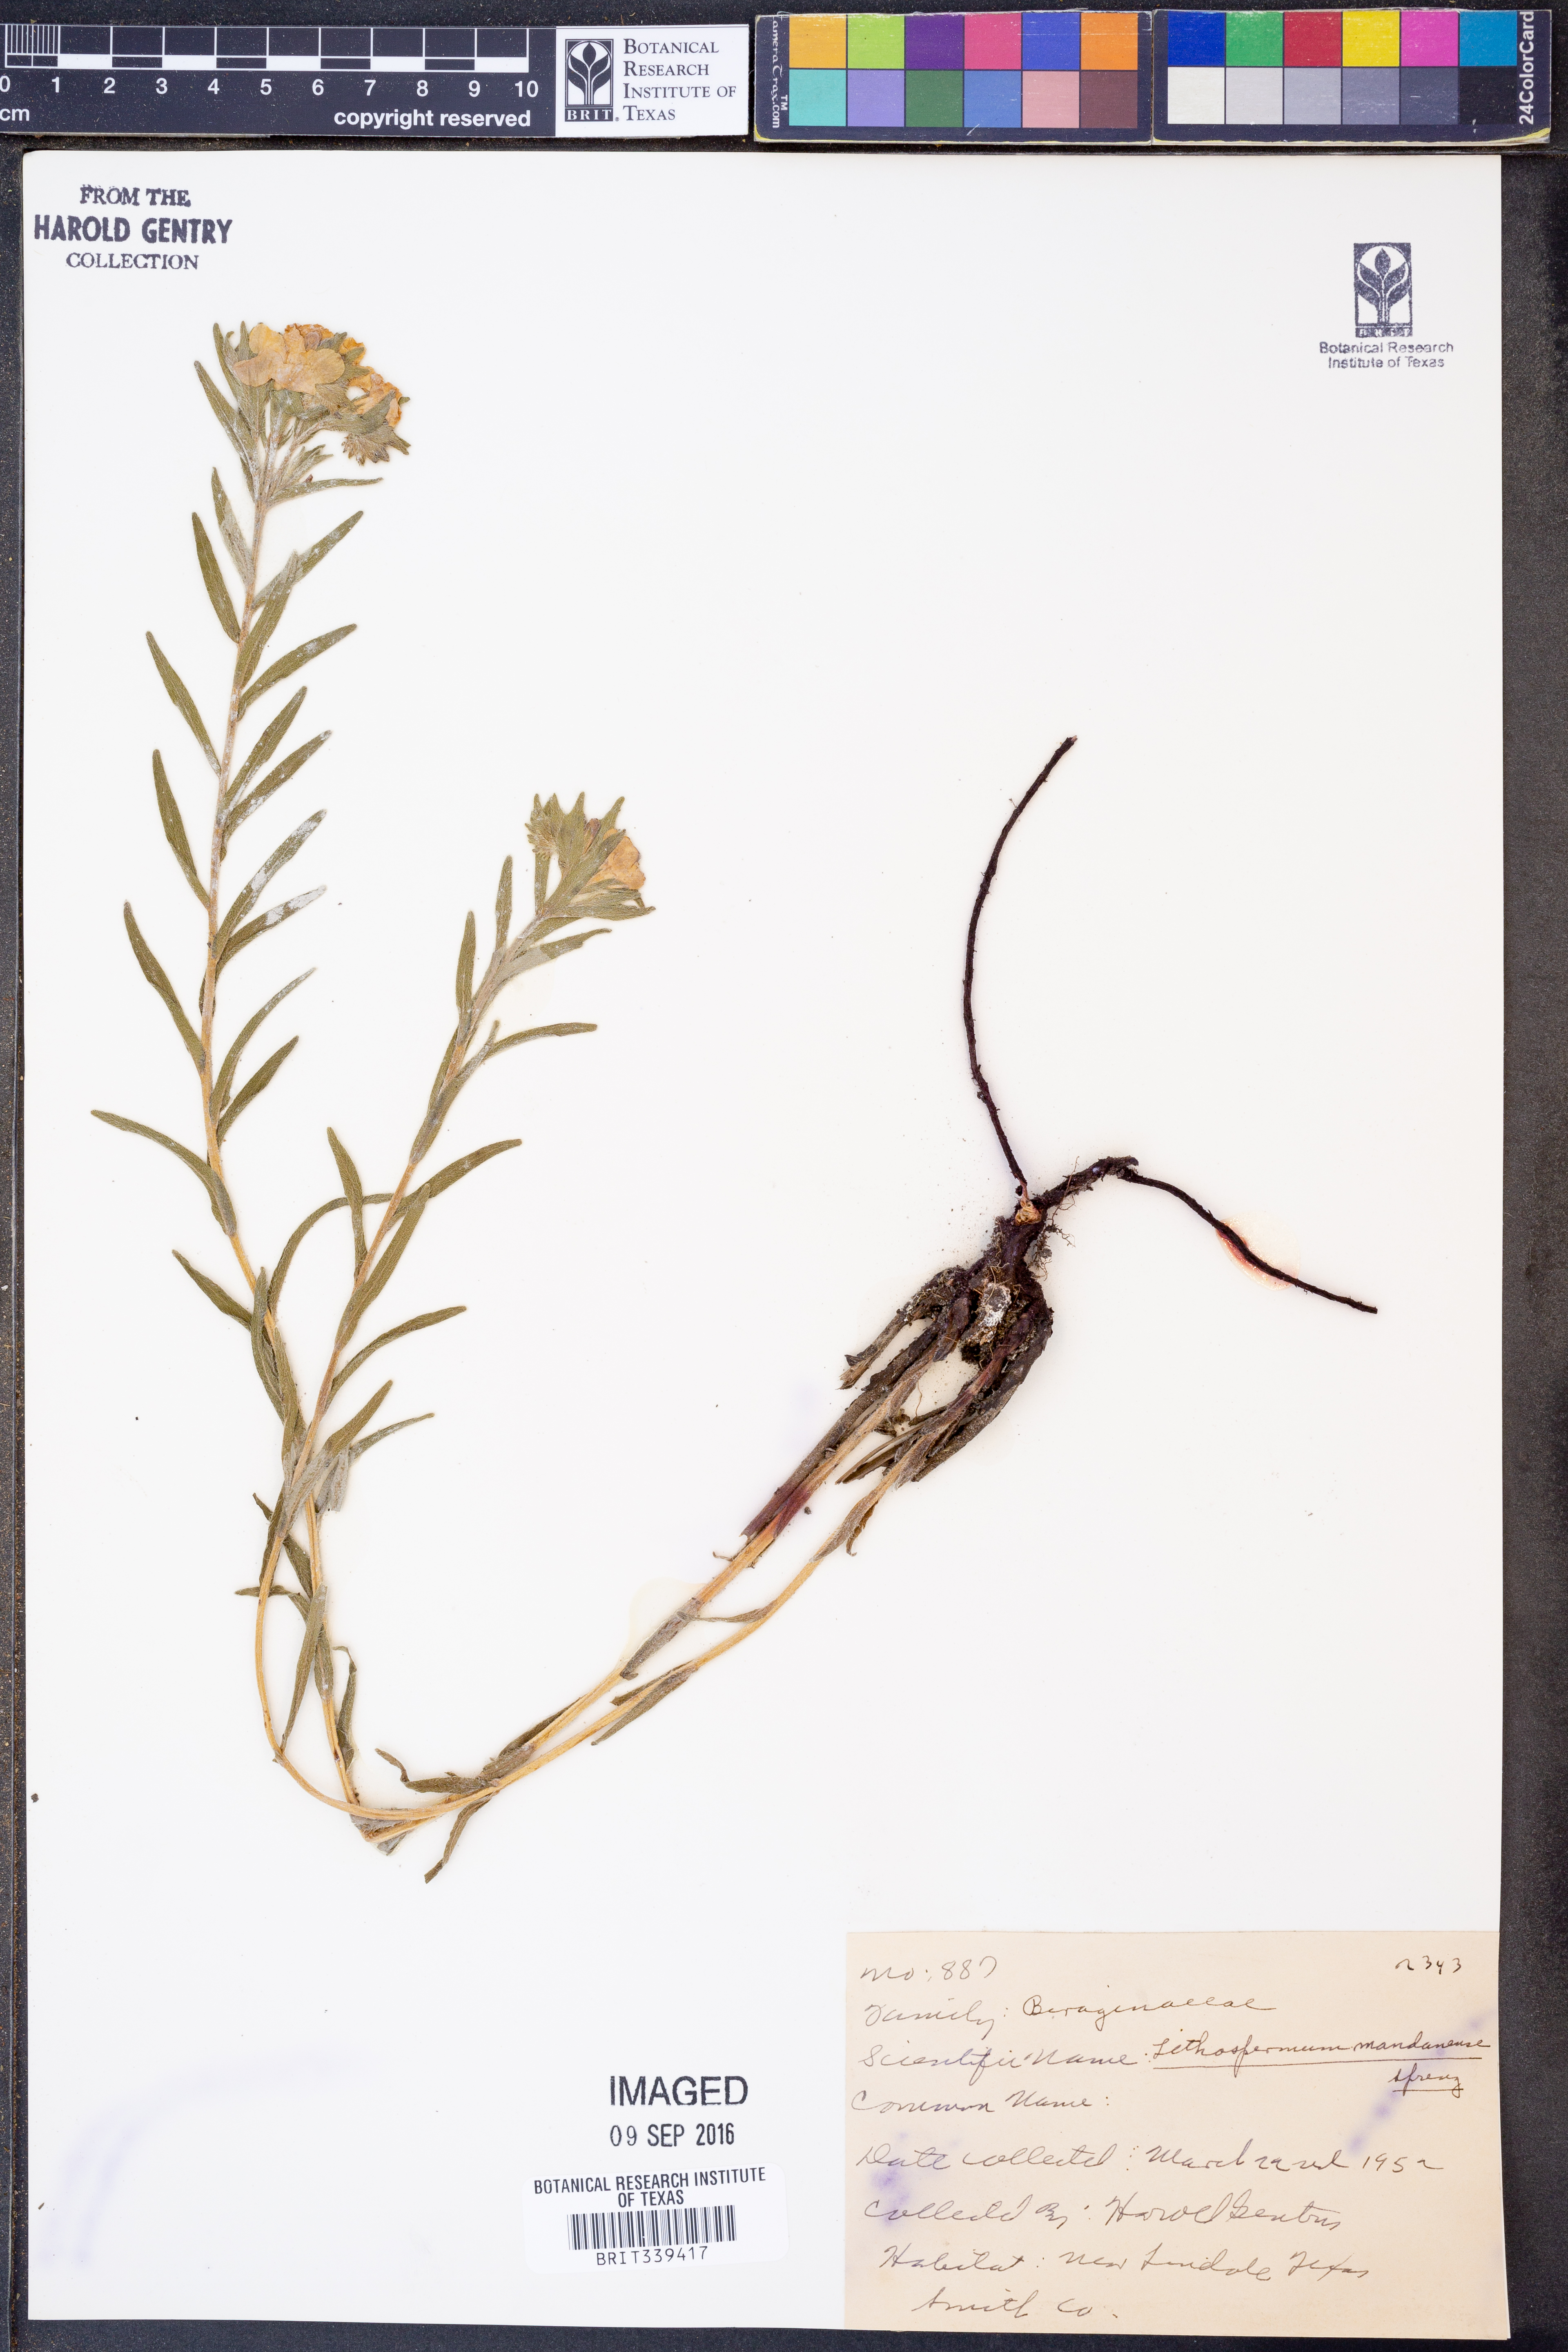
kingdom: Plantae
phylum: Tracheophyta
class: Magnoliopsida
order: Boraginales
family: Boraginaceae
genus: Lithospermum
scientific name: Lithospermum incisum
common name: Fringed gromwell
